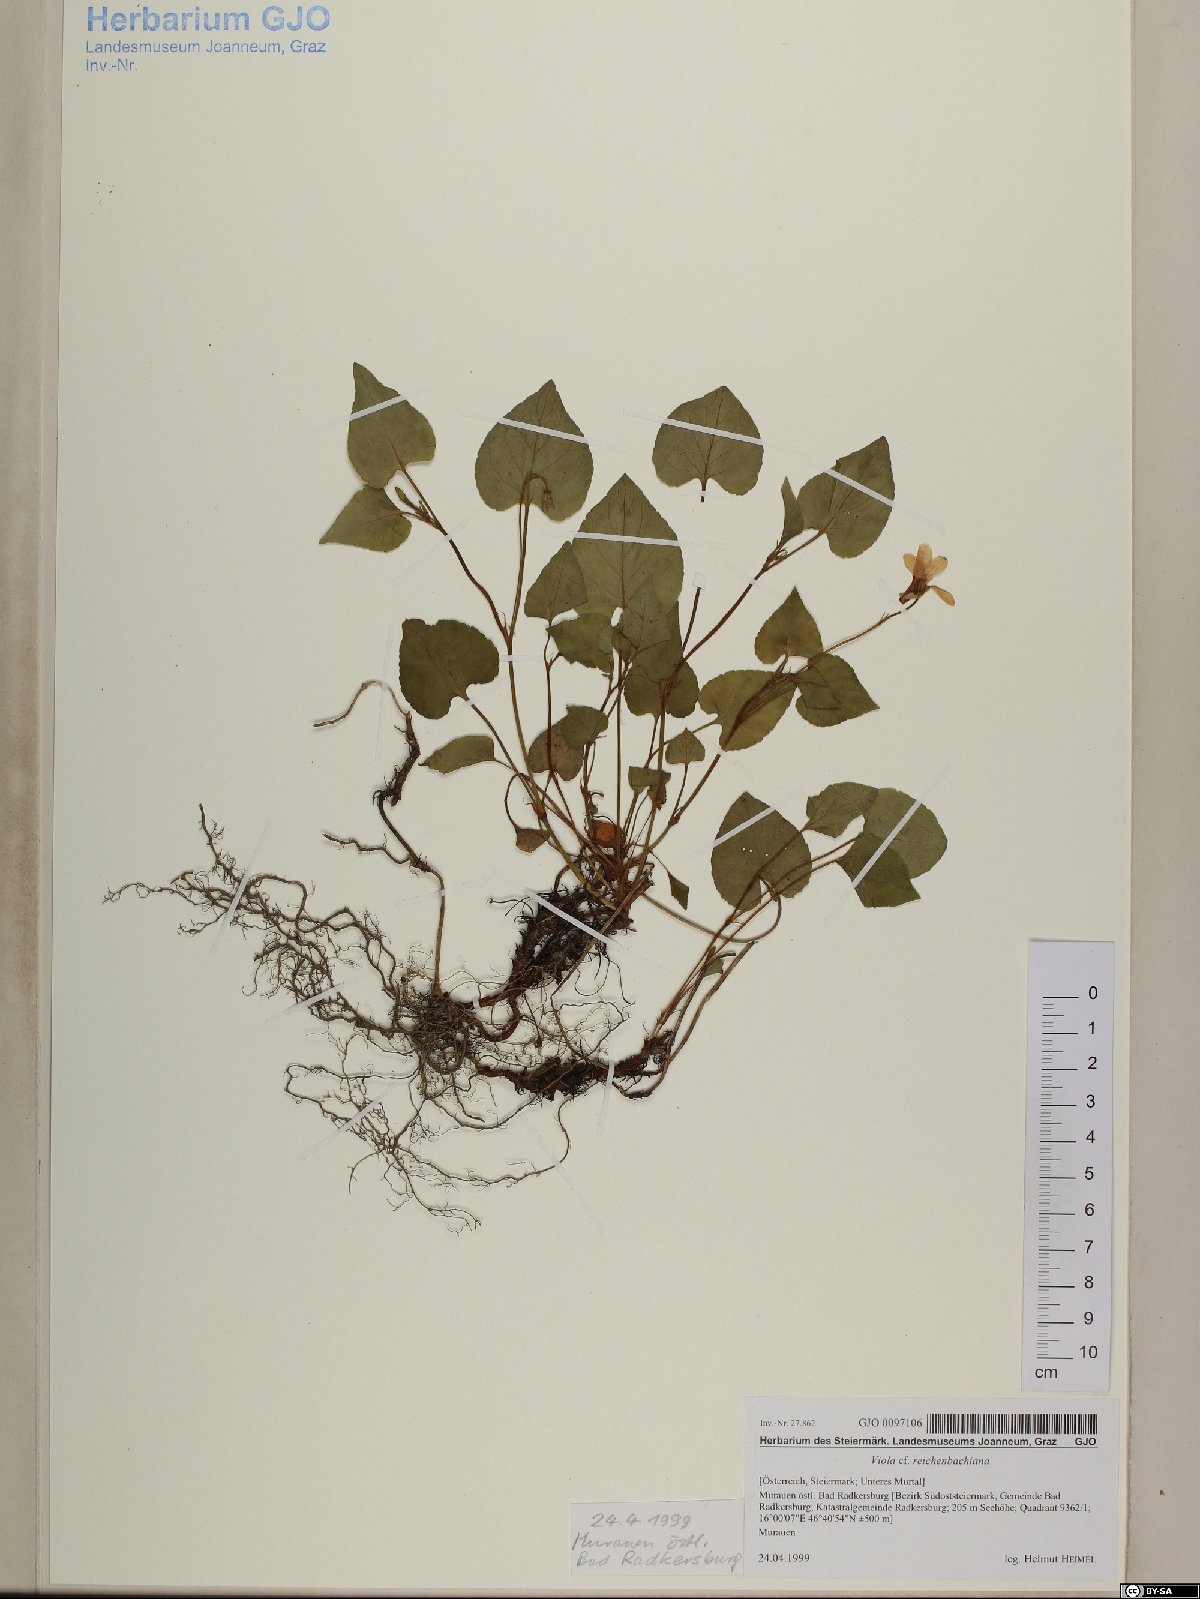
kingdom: Plantae
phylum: Tracheophyta
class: Magnoliopsida
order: Malpighiales
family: Violaceae
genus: Viola
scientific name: Viola reichenbachiana
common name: Early dog-violet
